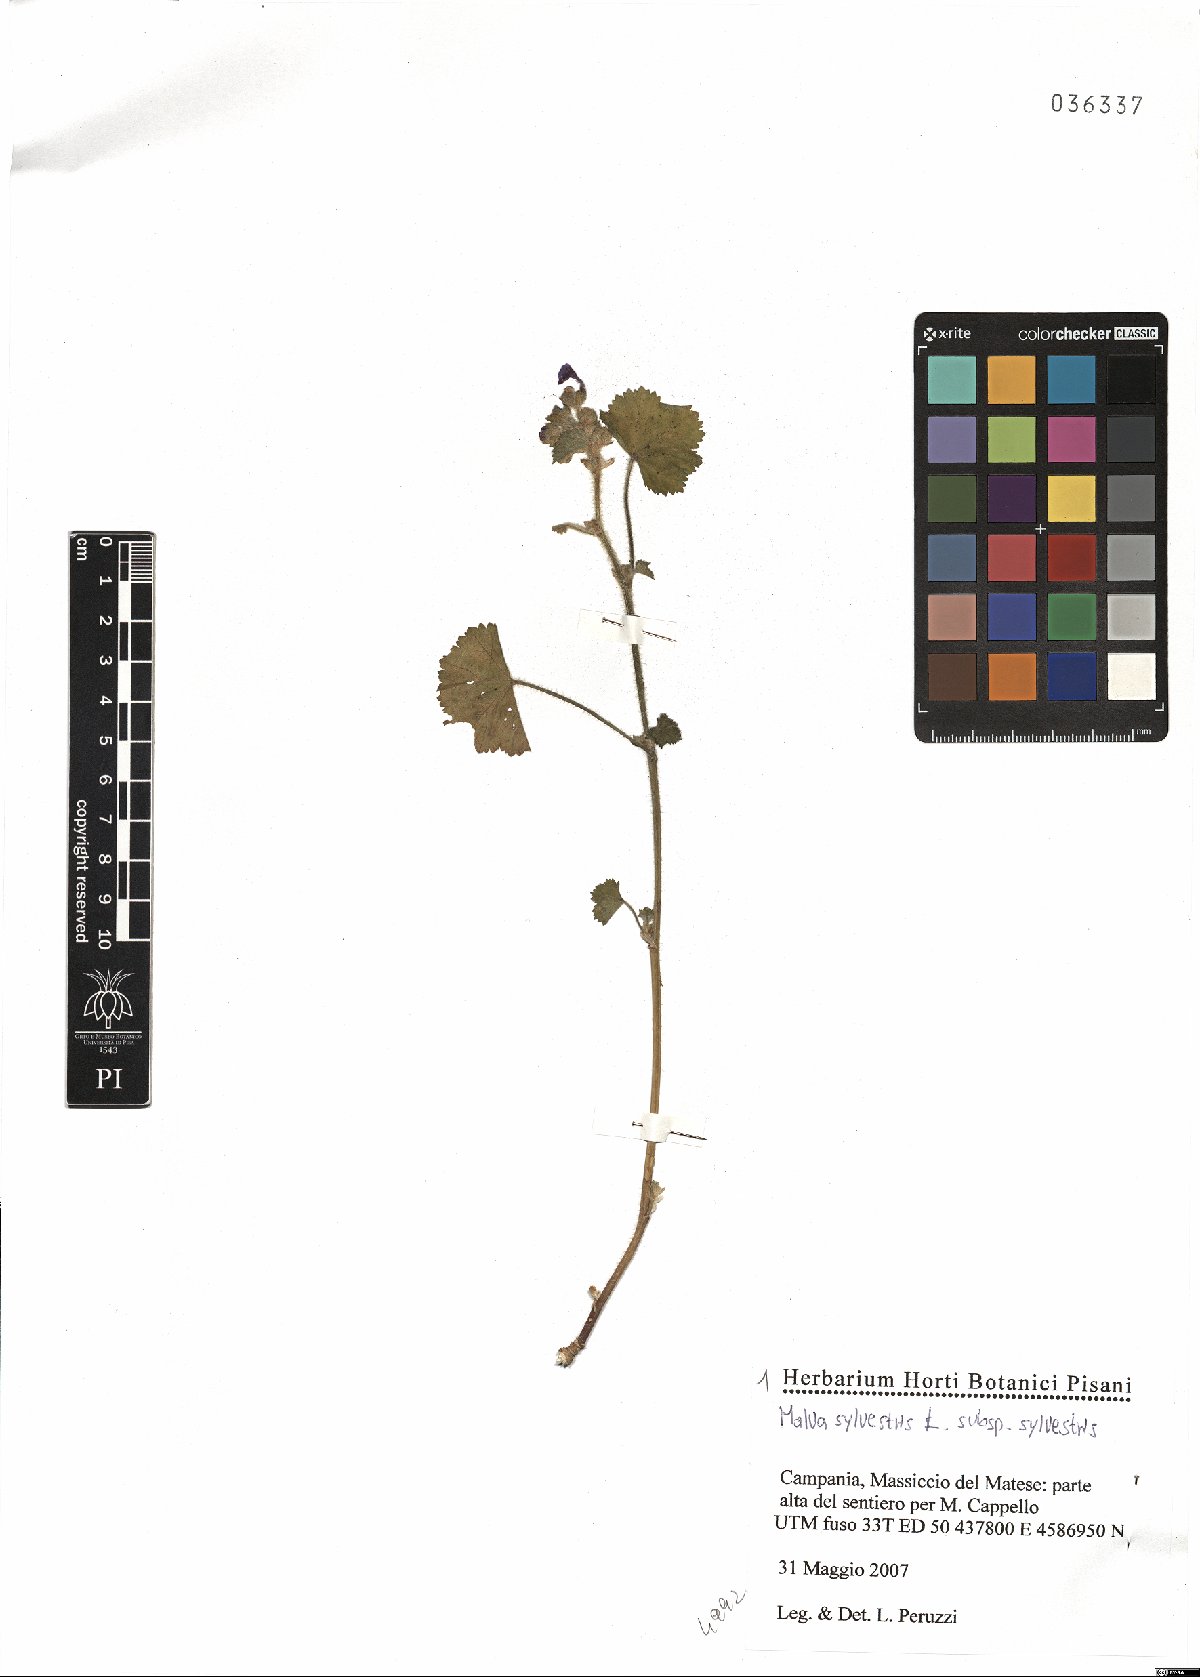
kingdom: Plantae
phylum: Tracheophyta
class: Magnoliopsida
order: Malvales
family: Malvaceae
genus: Malva
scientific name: Malva sylvestris
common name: Common mallow
